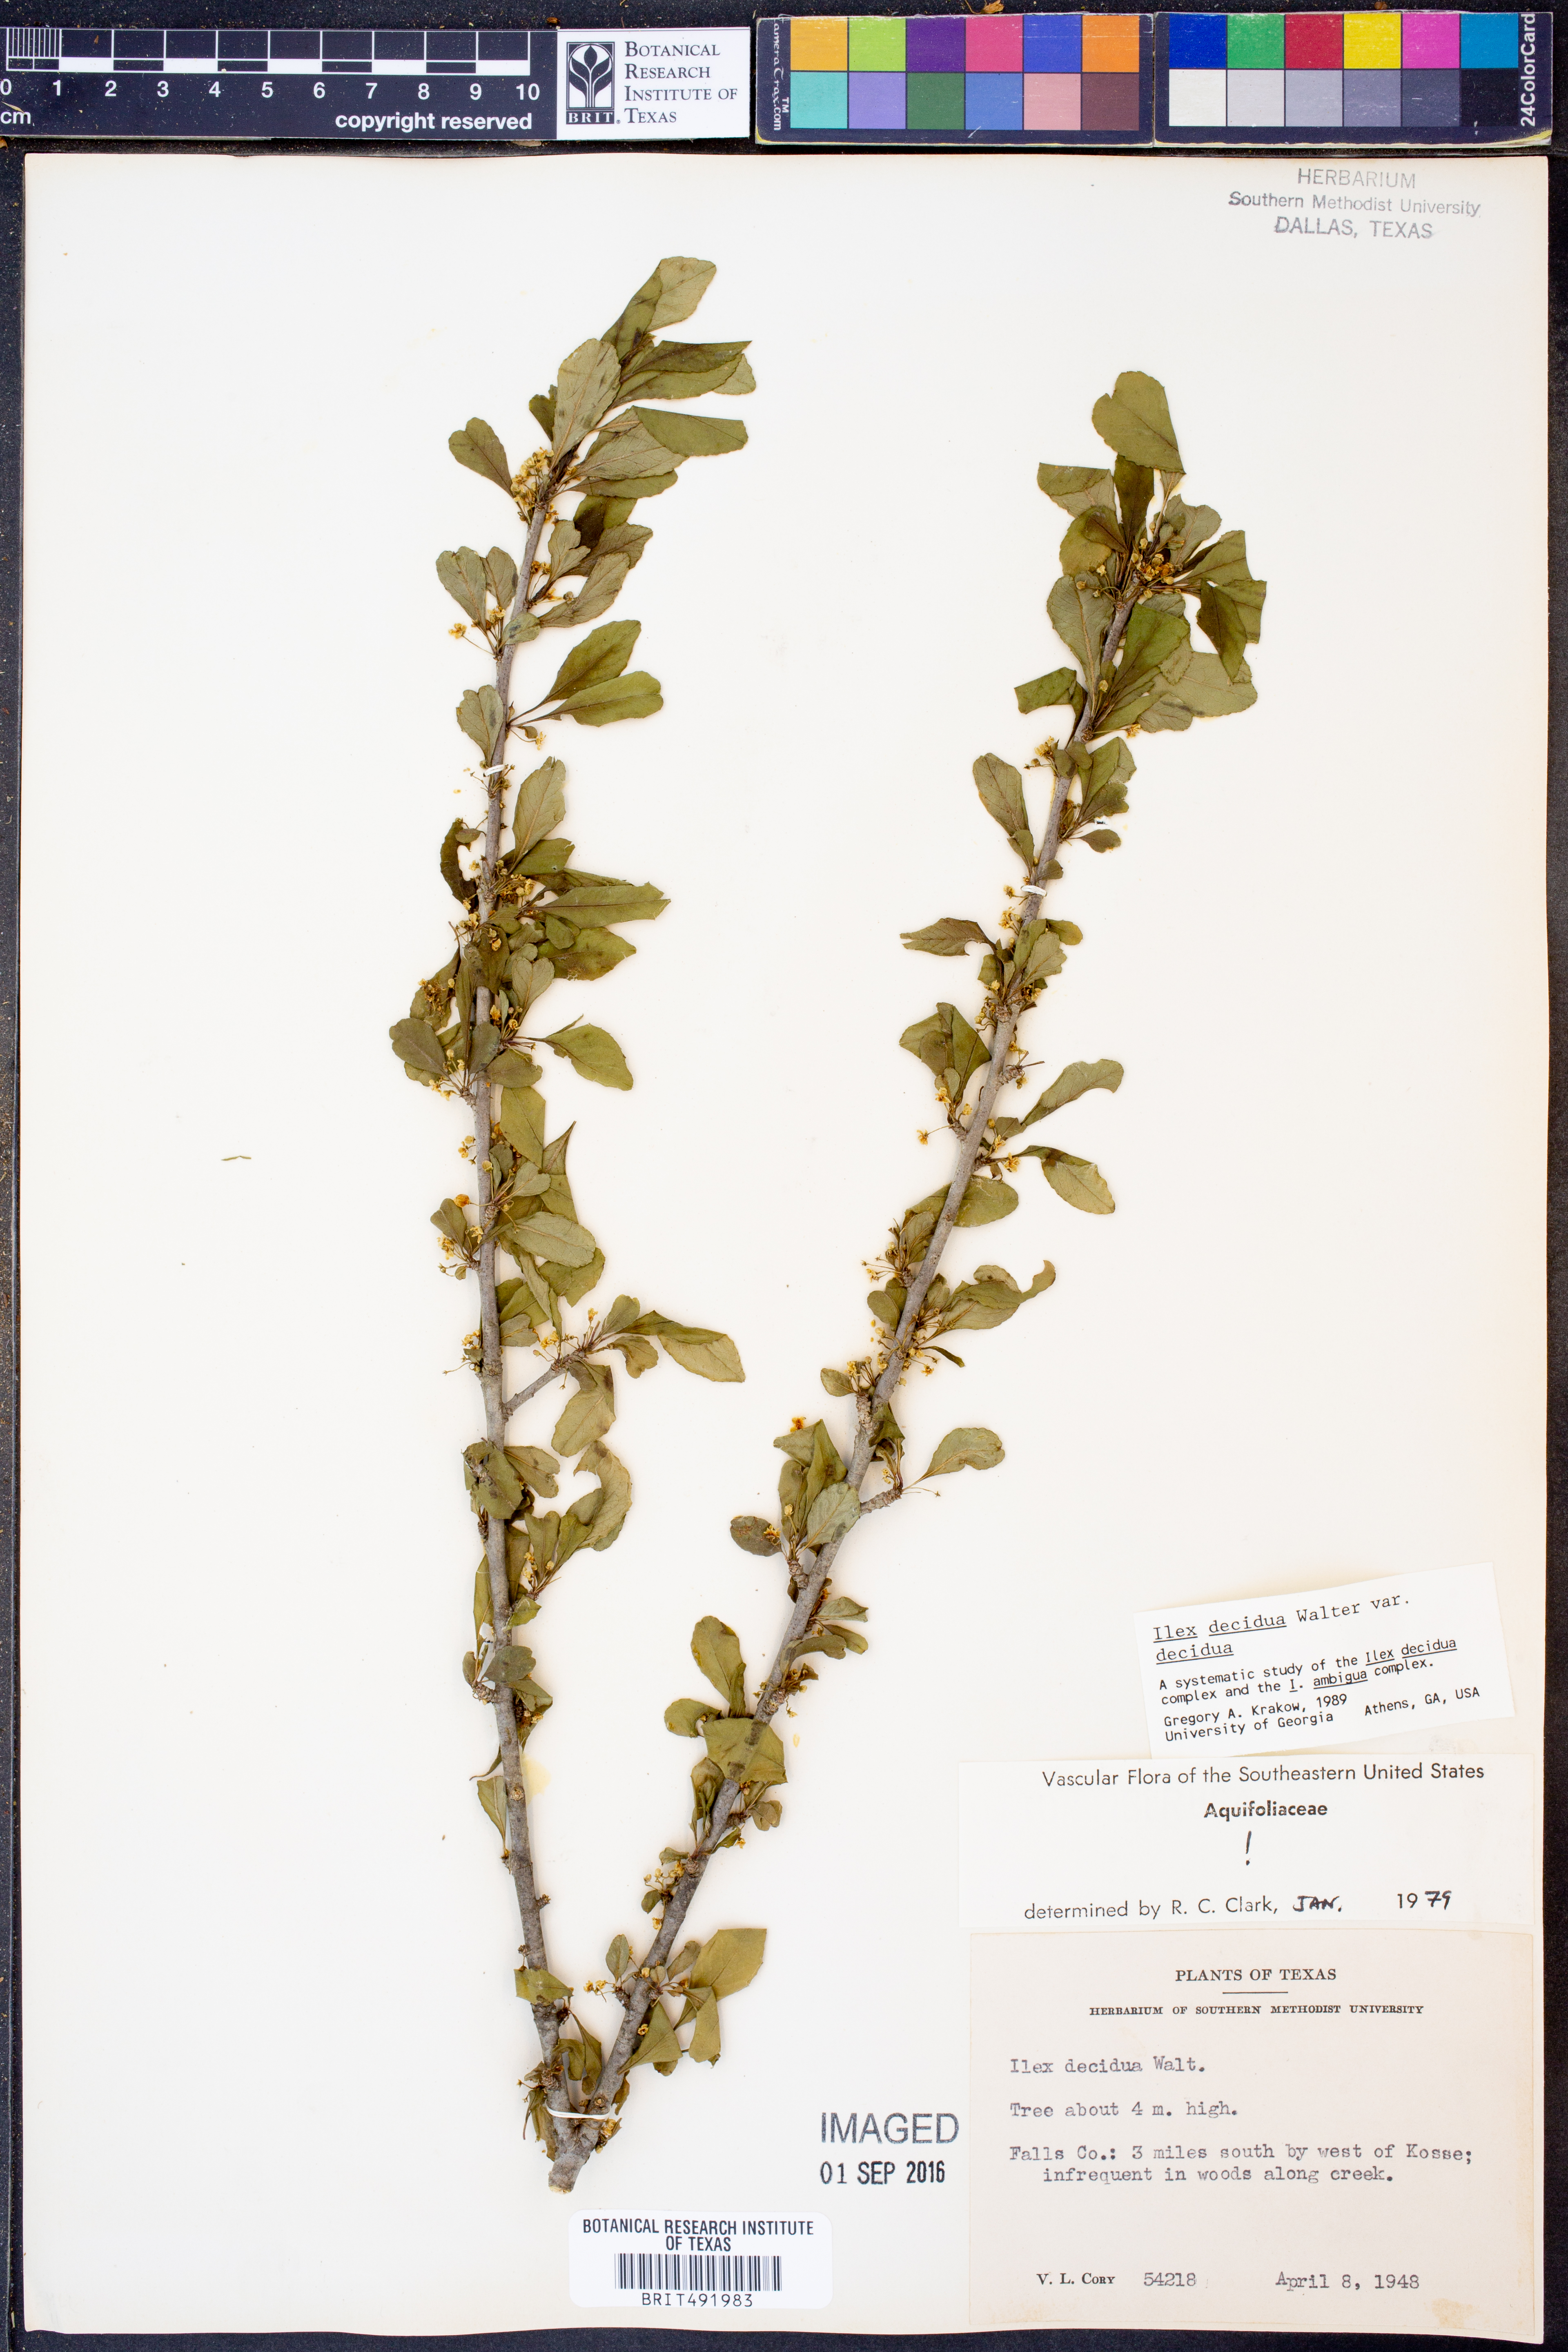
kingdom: Plantae
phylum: Tracheophyta
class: Magnoliopsida
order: Aquifoliales
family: Aquifoliaceae
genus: Ilex
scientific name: Ilex decidua
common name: Possum-haw
